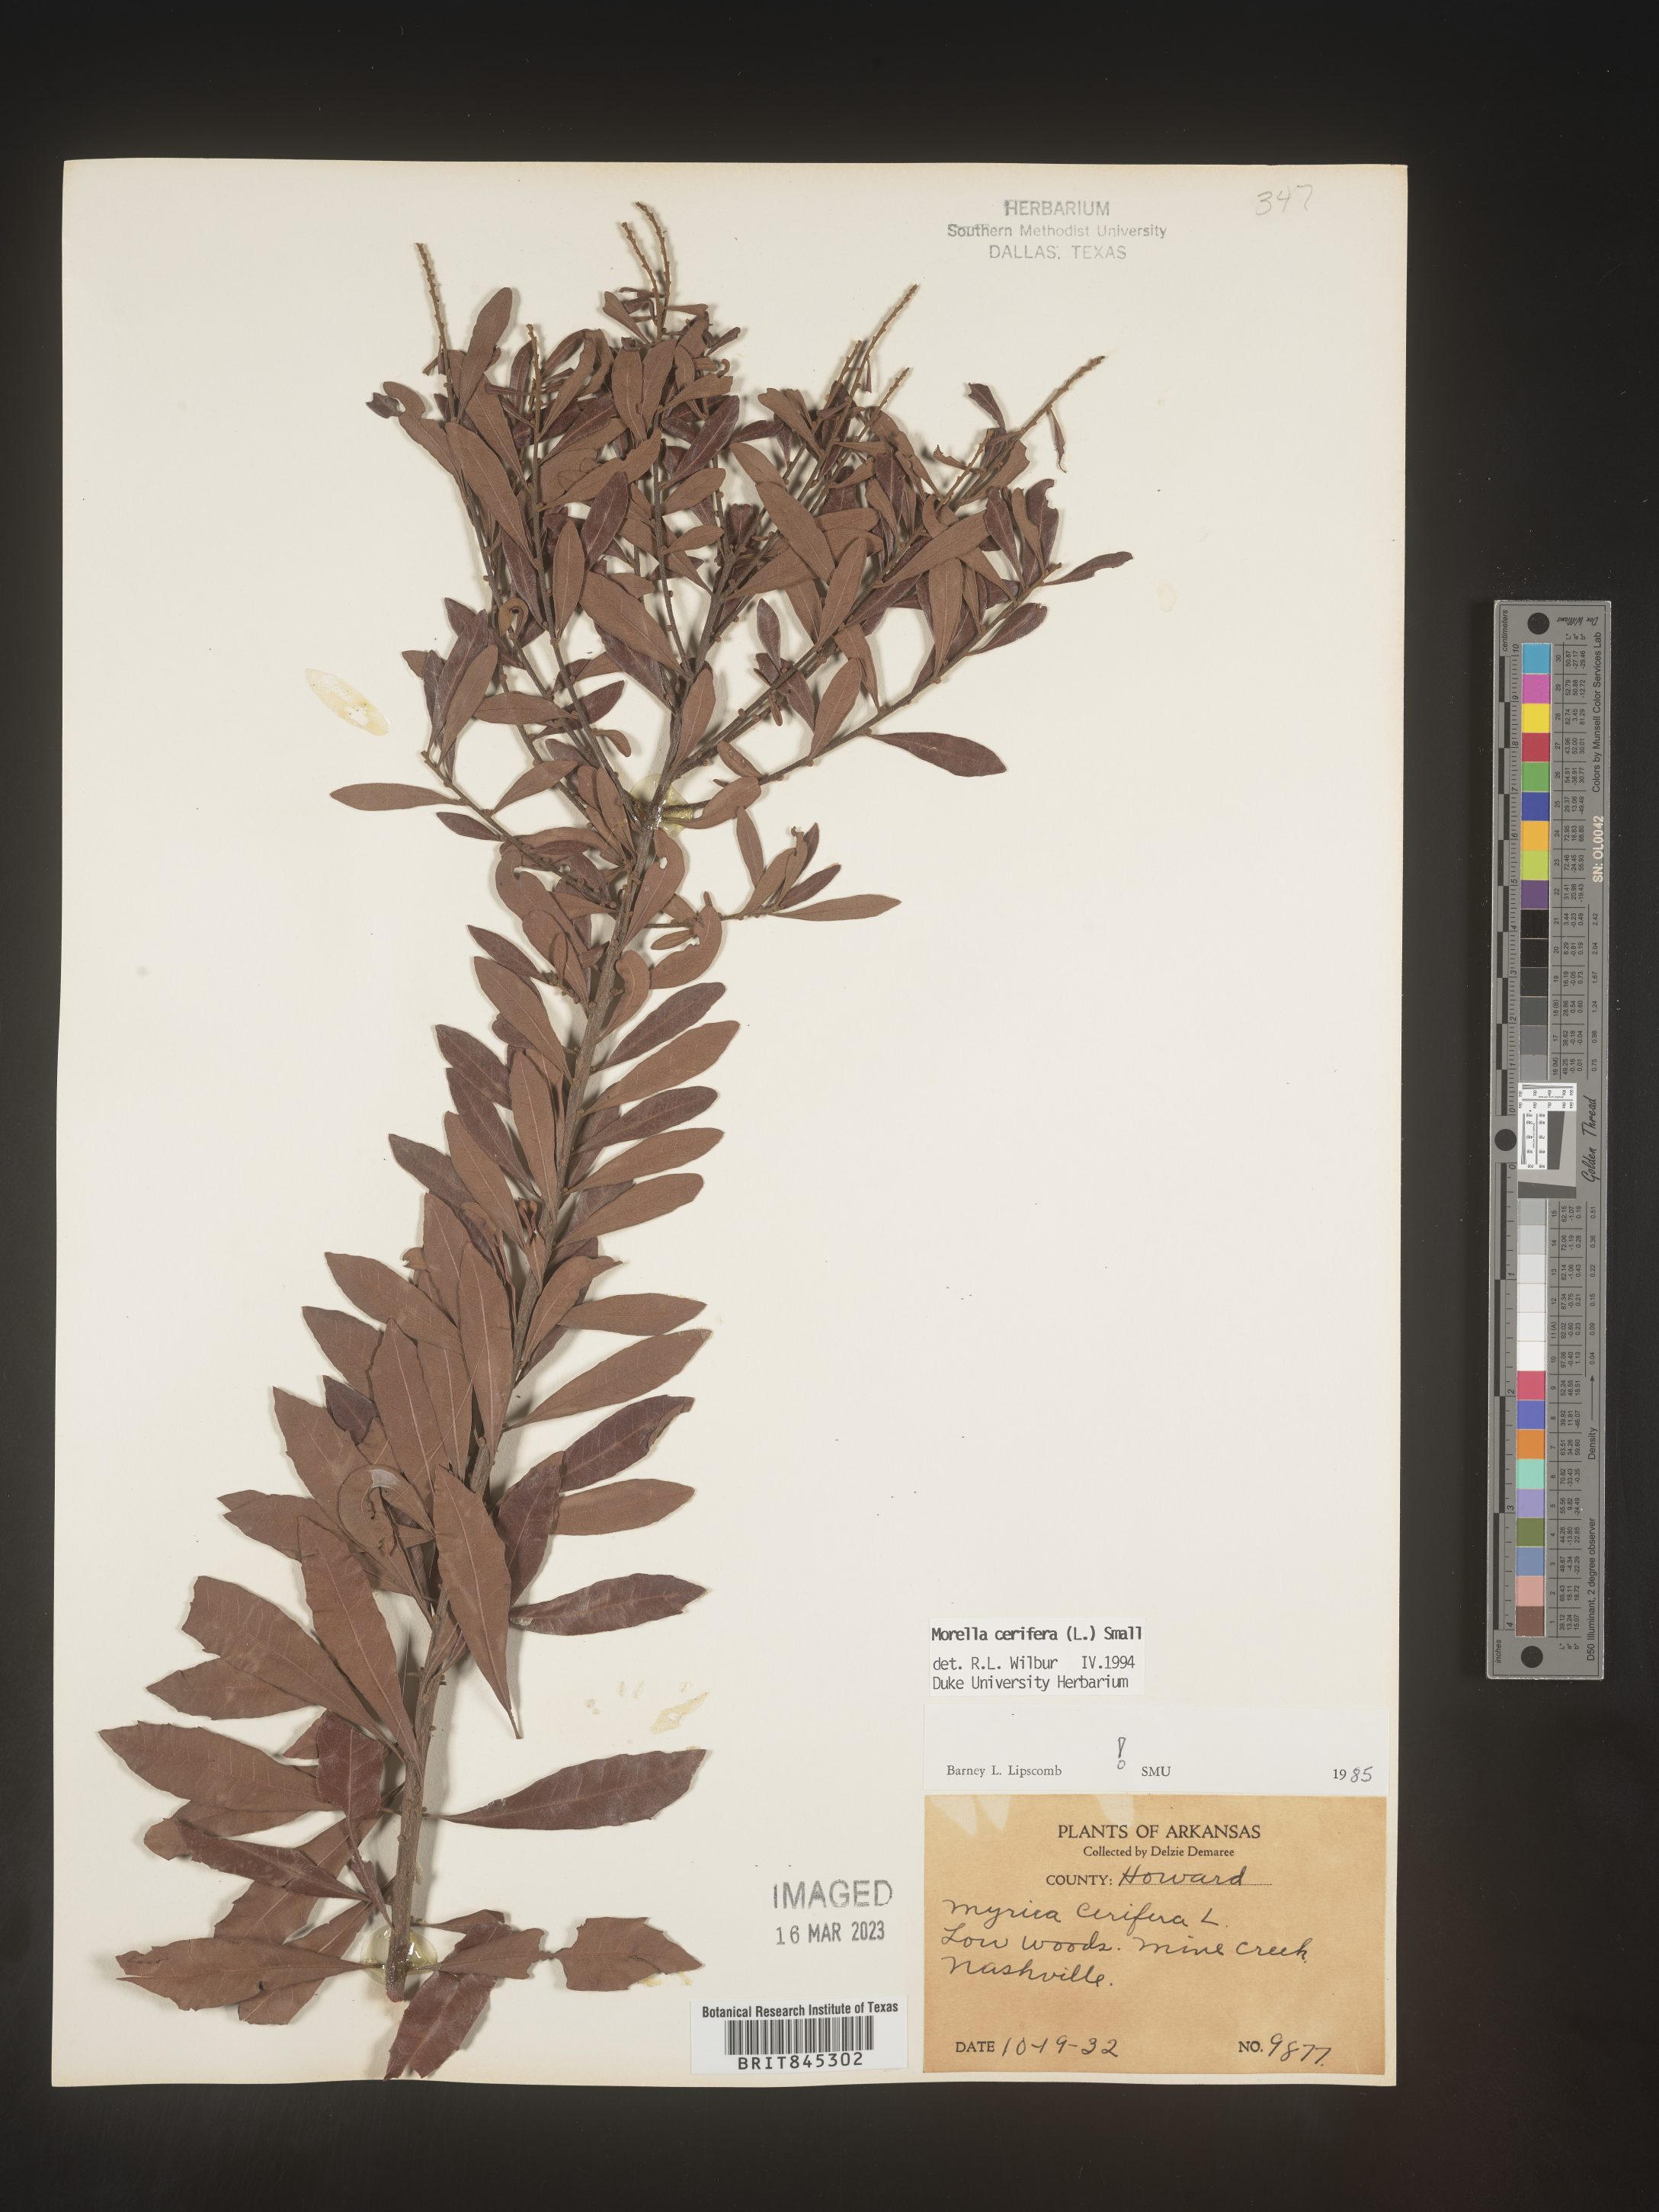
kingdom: Plantae
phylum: Tracheophyta
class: Magnoliopsida
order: Fagales
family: Myricaceae
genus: Morella
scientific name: Morella cerifera
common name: Wax myrtle
